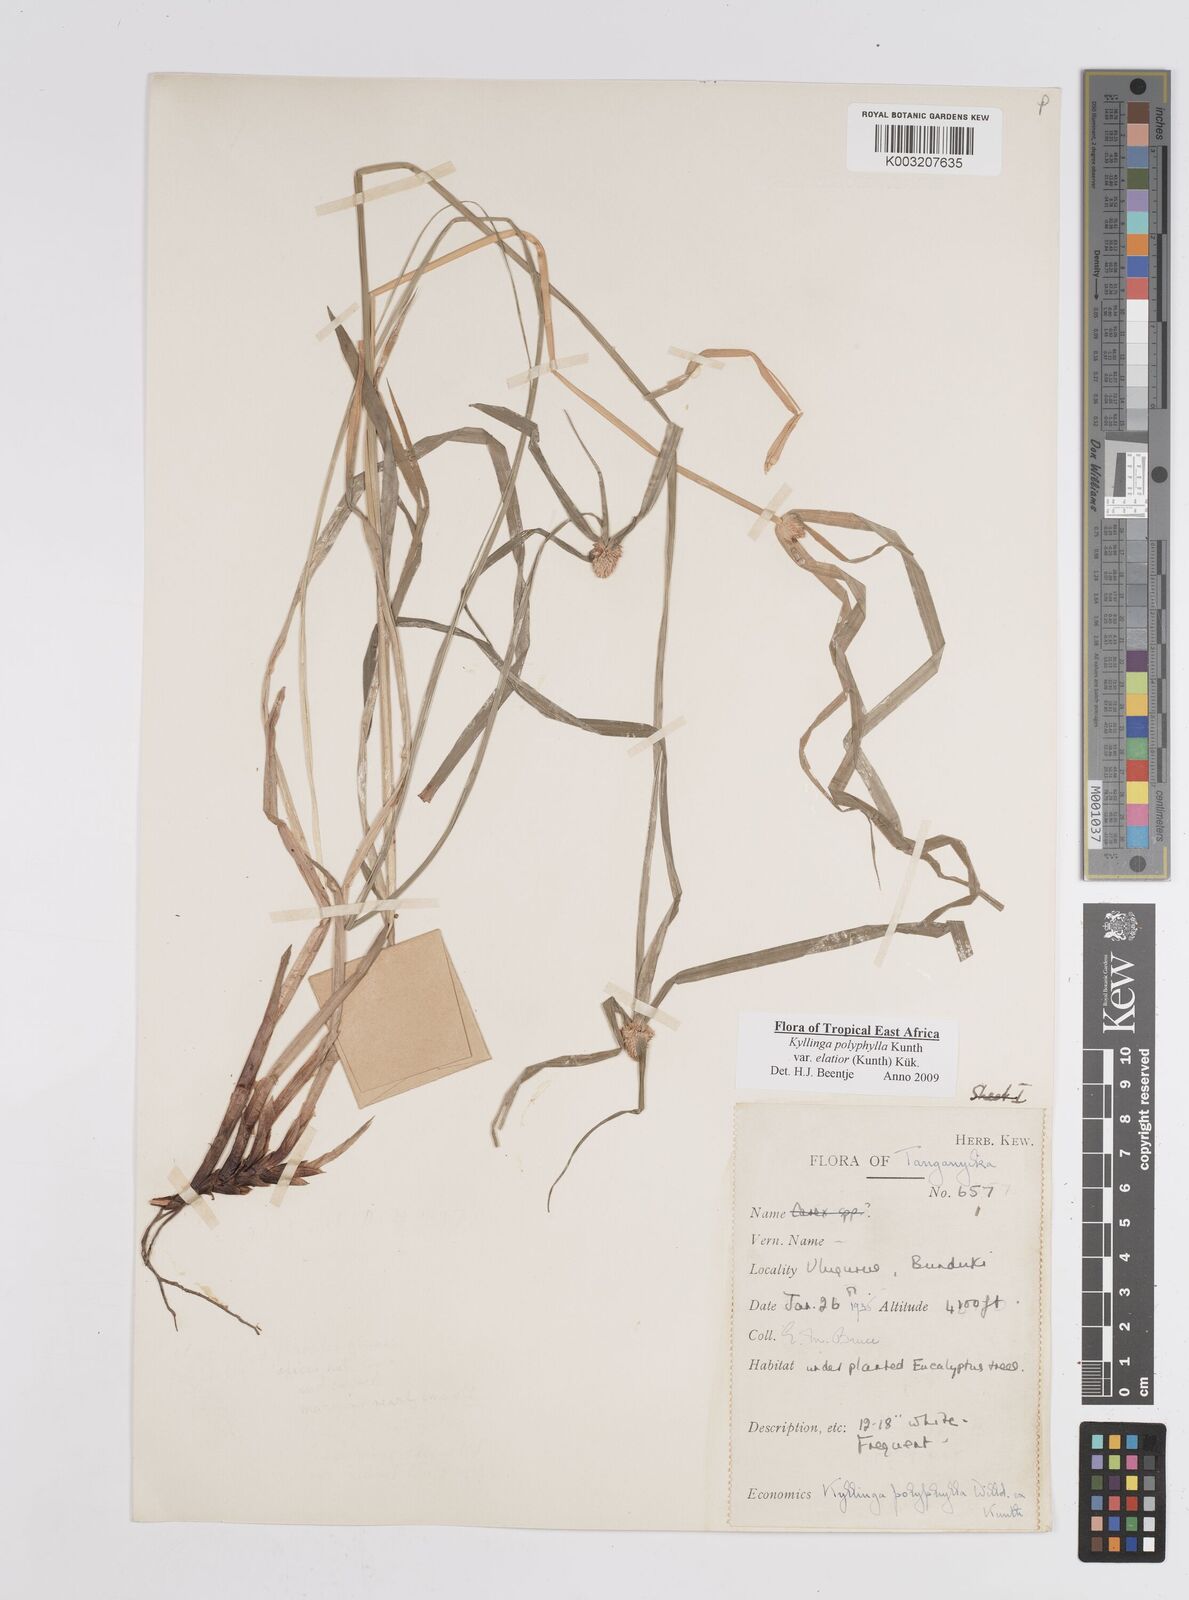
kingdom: Plantae
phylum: Tracheophyta
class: Liliopsida
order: Poales
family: Cyperaceae
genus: Cyperus
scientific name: Cyperus
